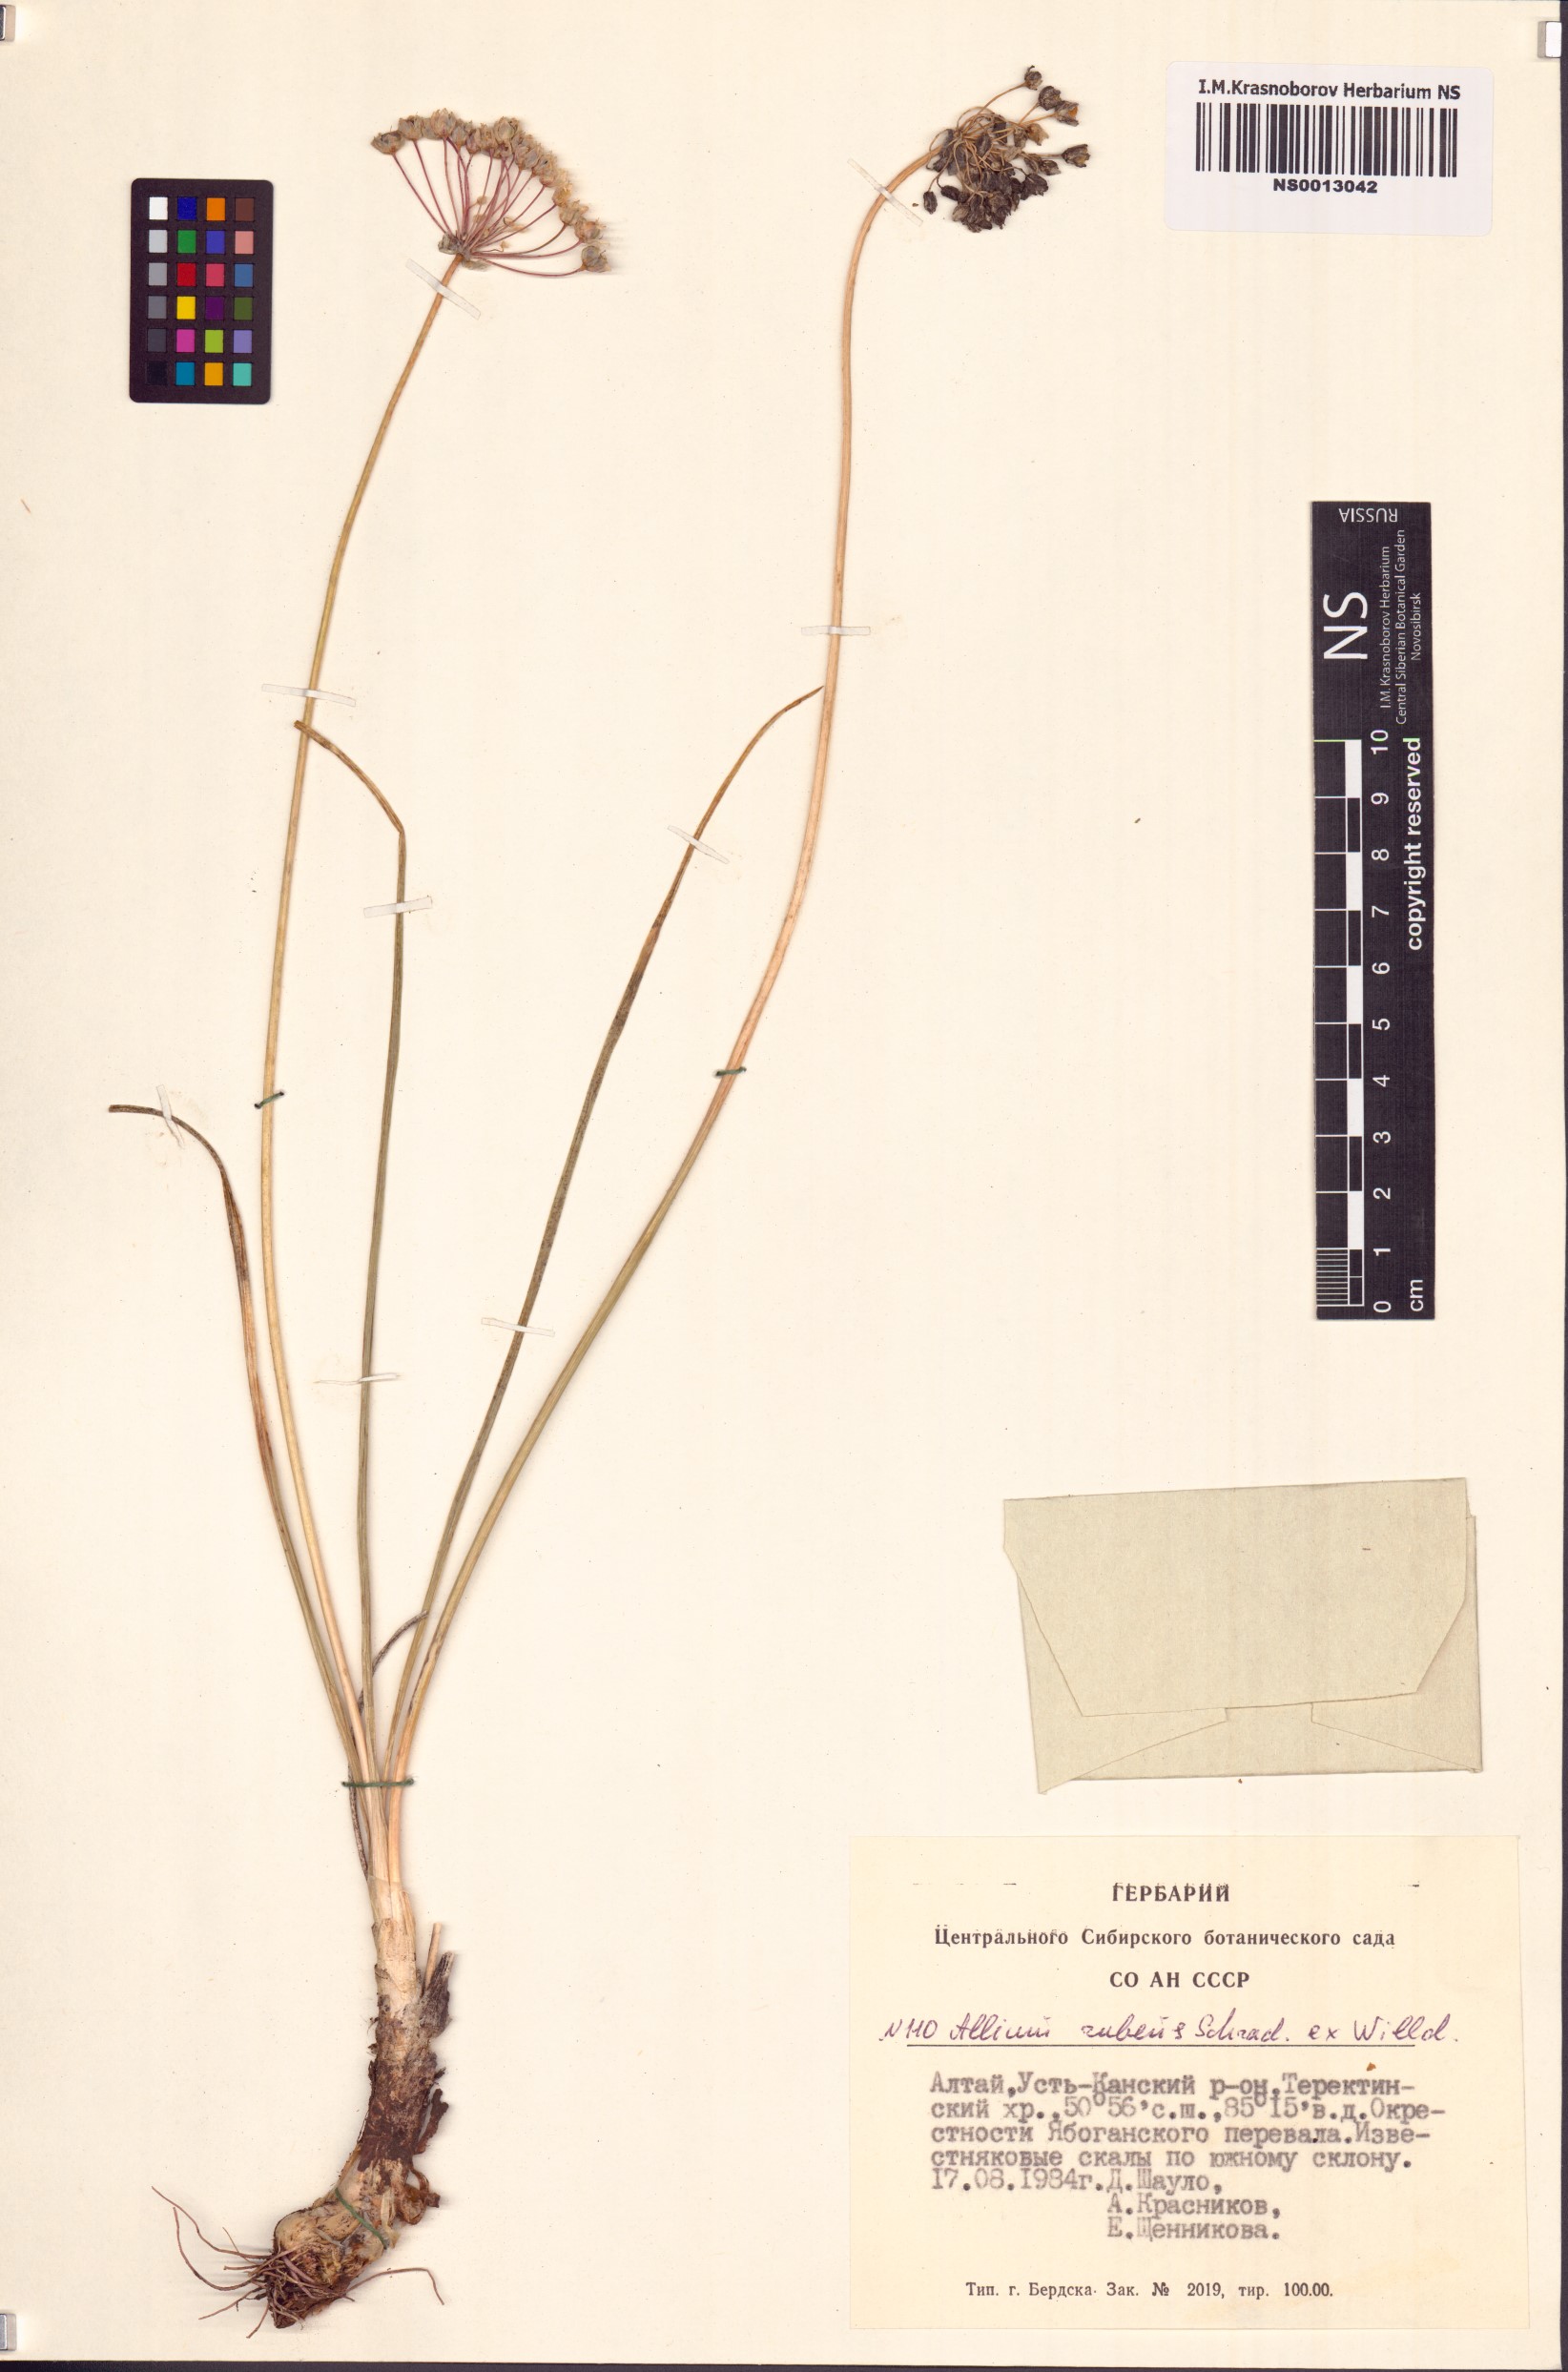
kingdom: Plantae
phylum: Tracheophyta
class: Liliopsida
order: Asparagales
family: Amaryllidaceae
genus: Allium
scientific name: Allium rubens
